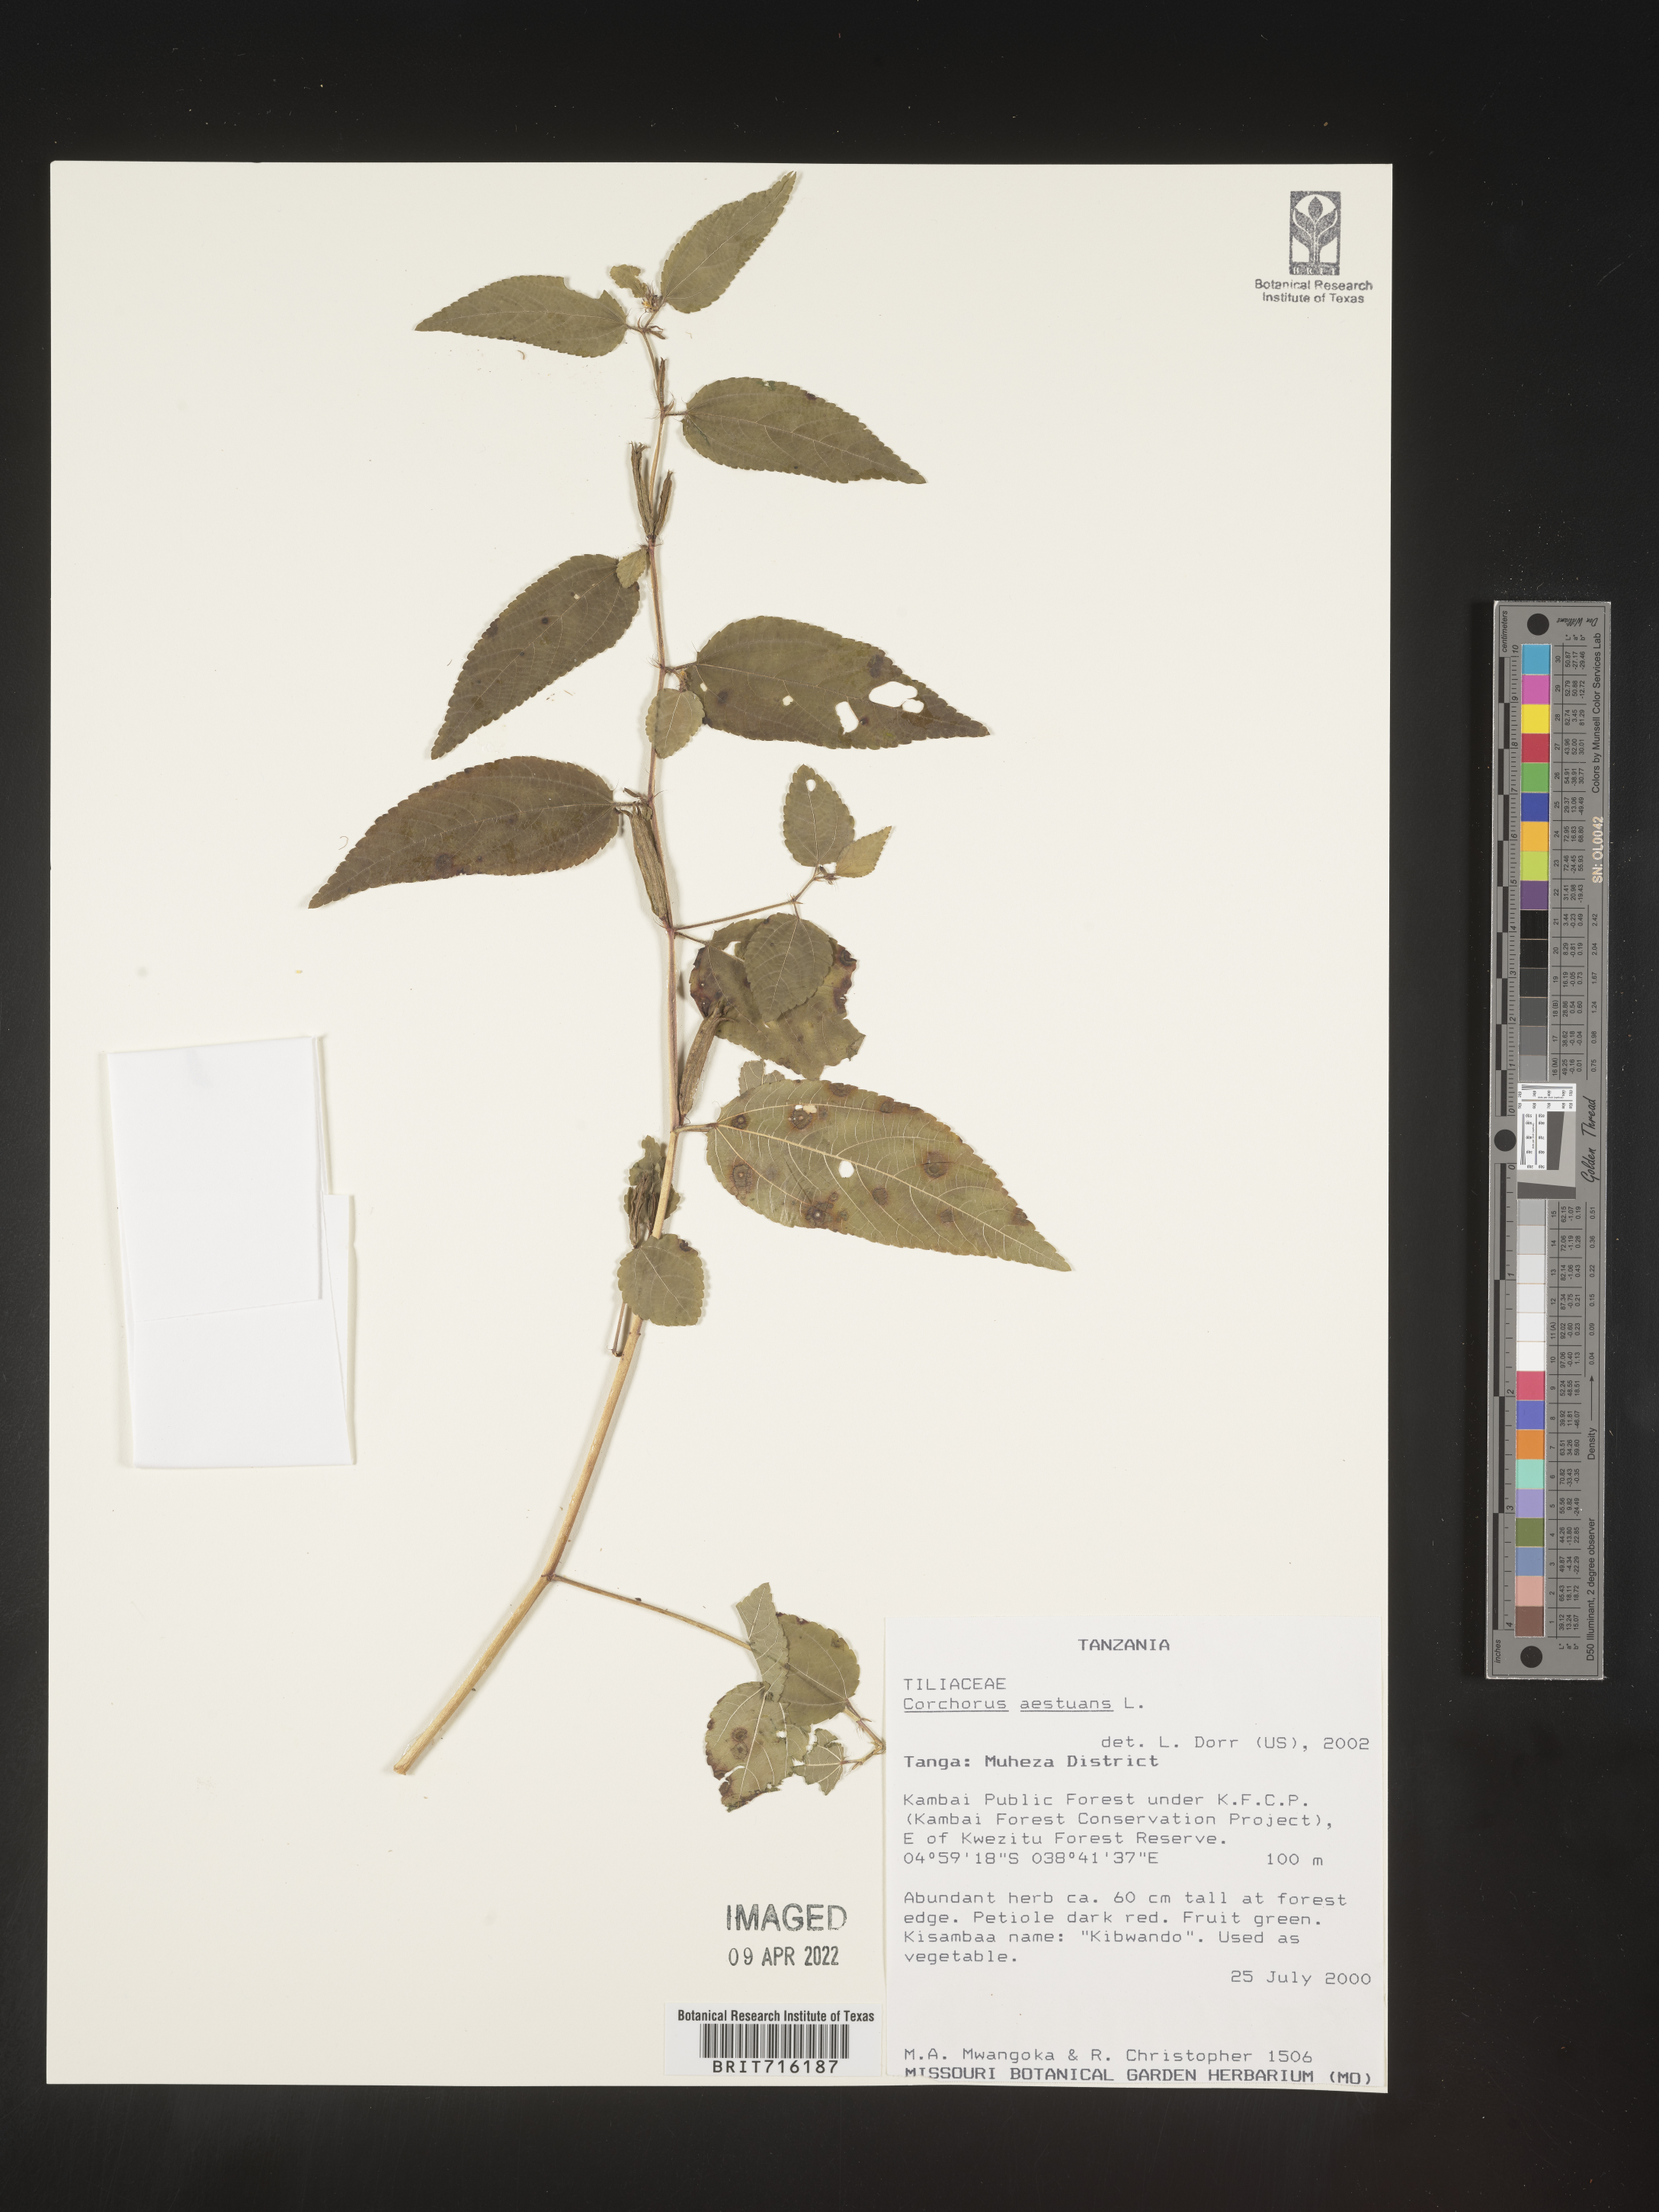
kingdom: Plantae
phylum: Tracheophyta
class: Magnoliopsida
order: Malvales
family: Malvaceae
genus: Corchorus
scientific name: Corchorus
